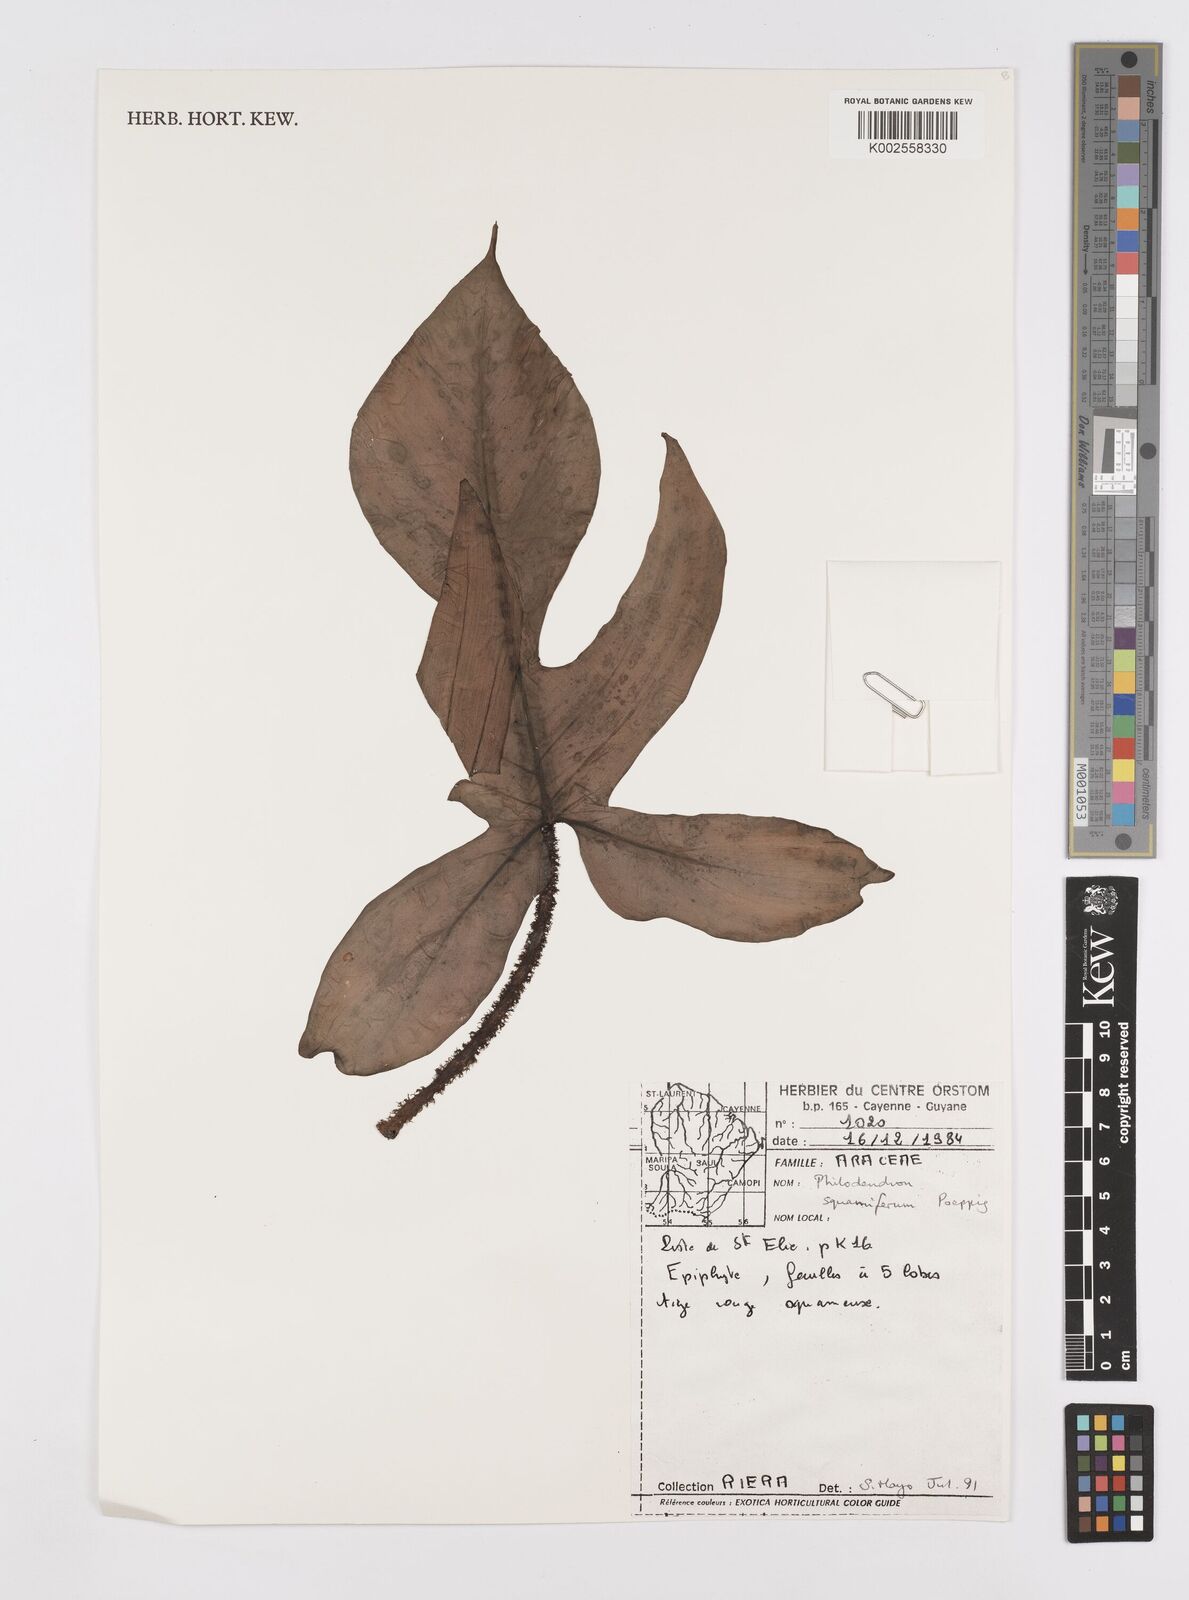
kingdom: Plantae
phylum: Tracheophyta
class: Liliopsida
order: Alismatales
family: Araceae
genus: Philodendron
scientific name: Philodendron squamiferum
